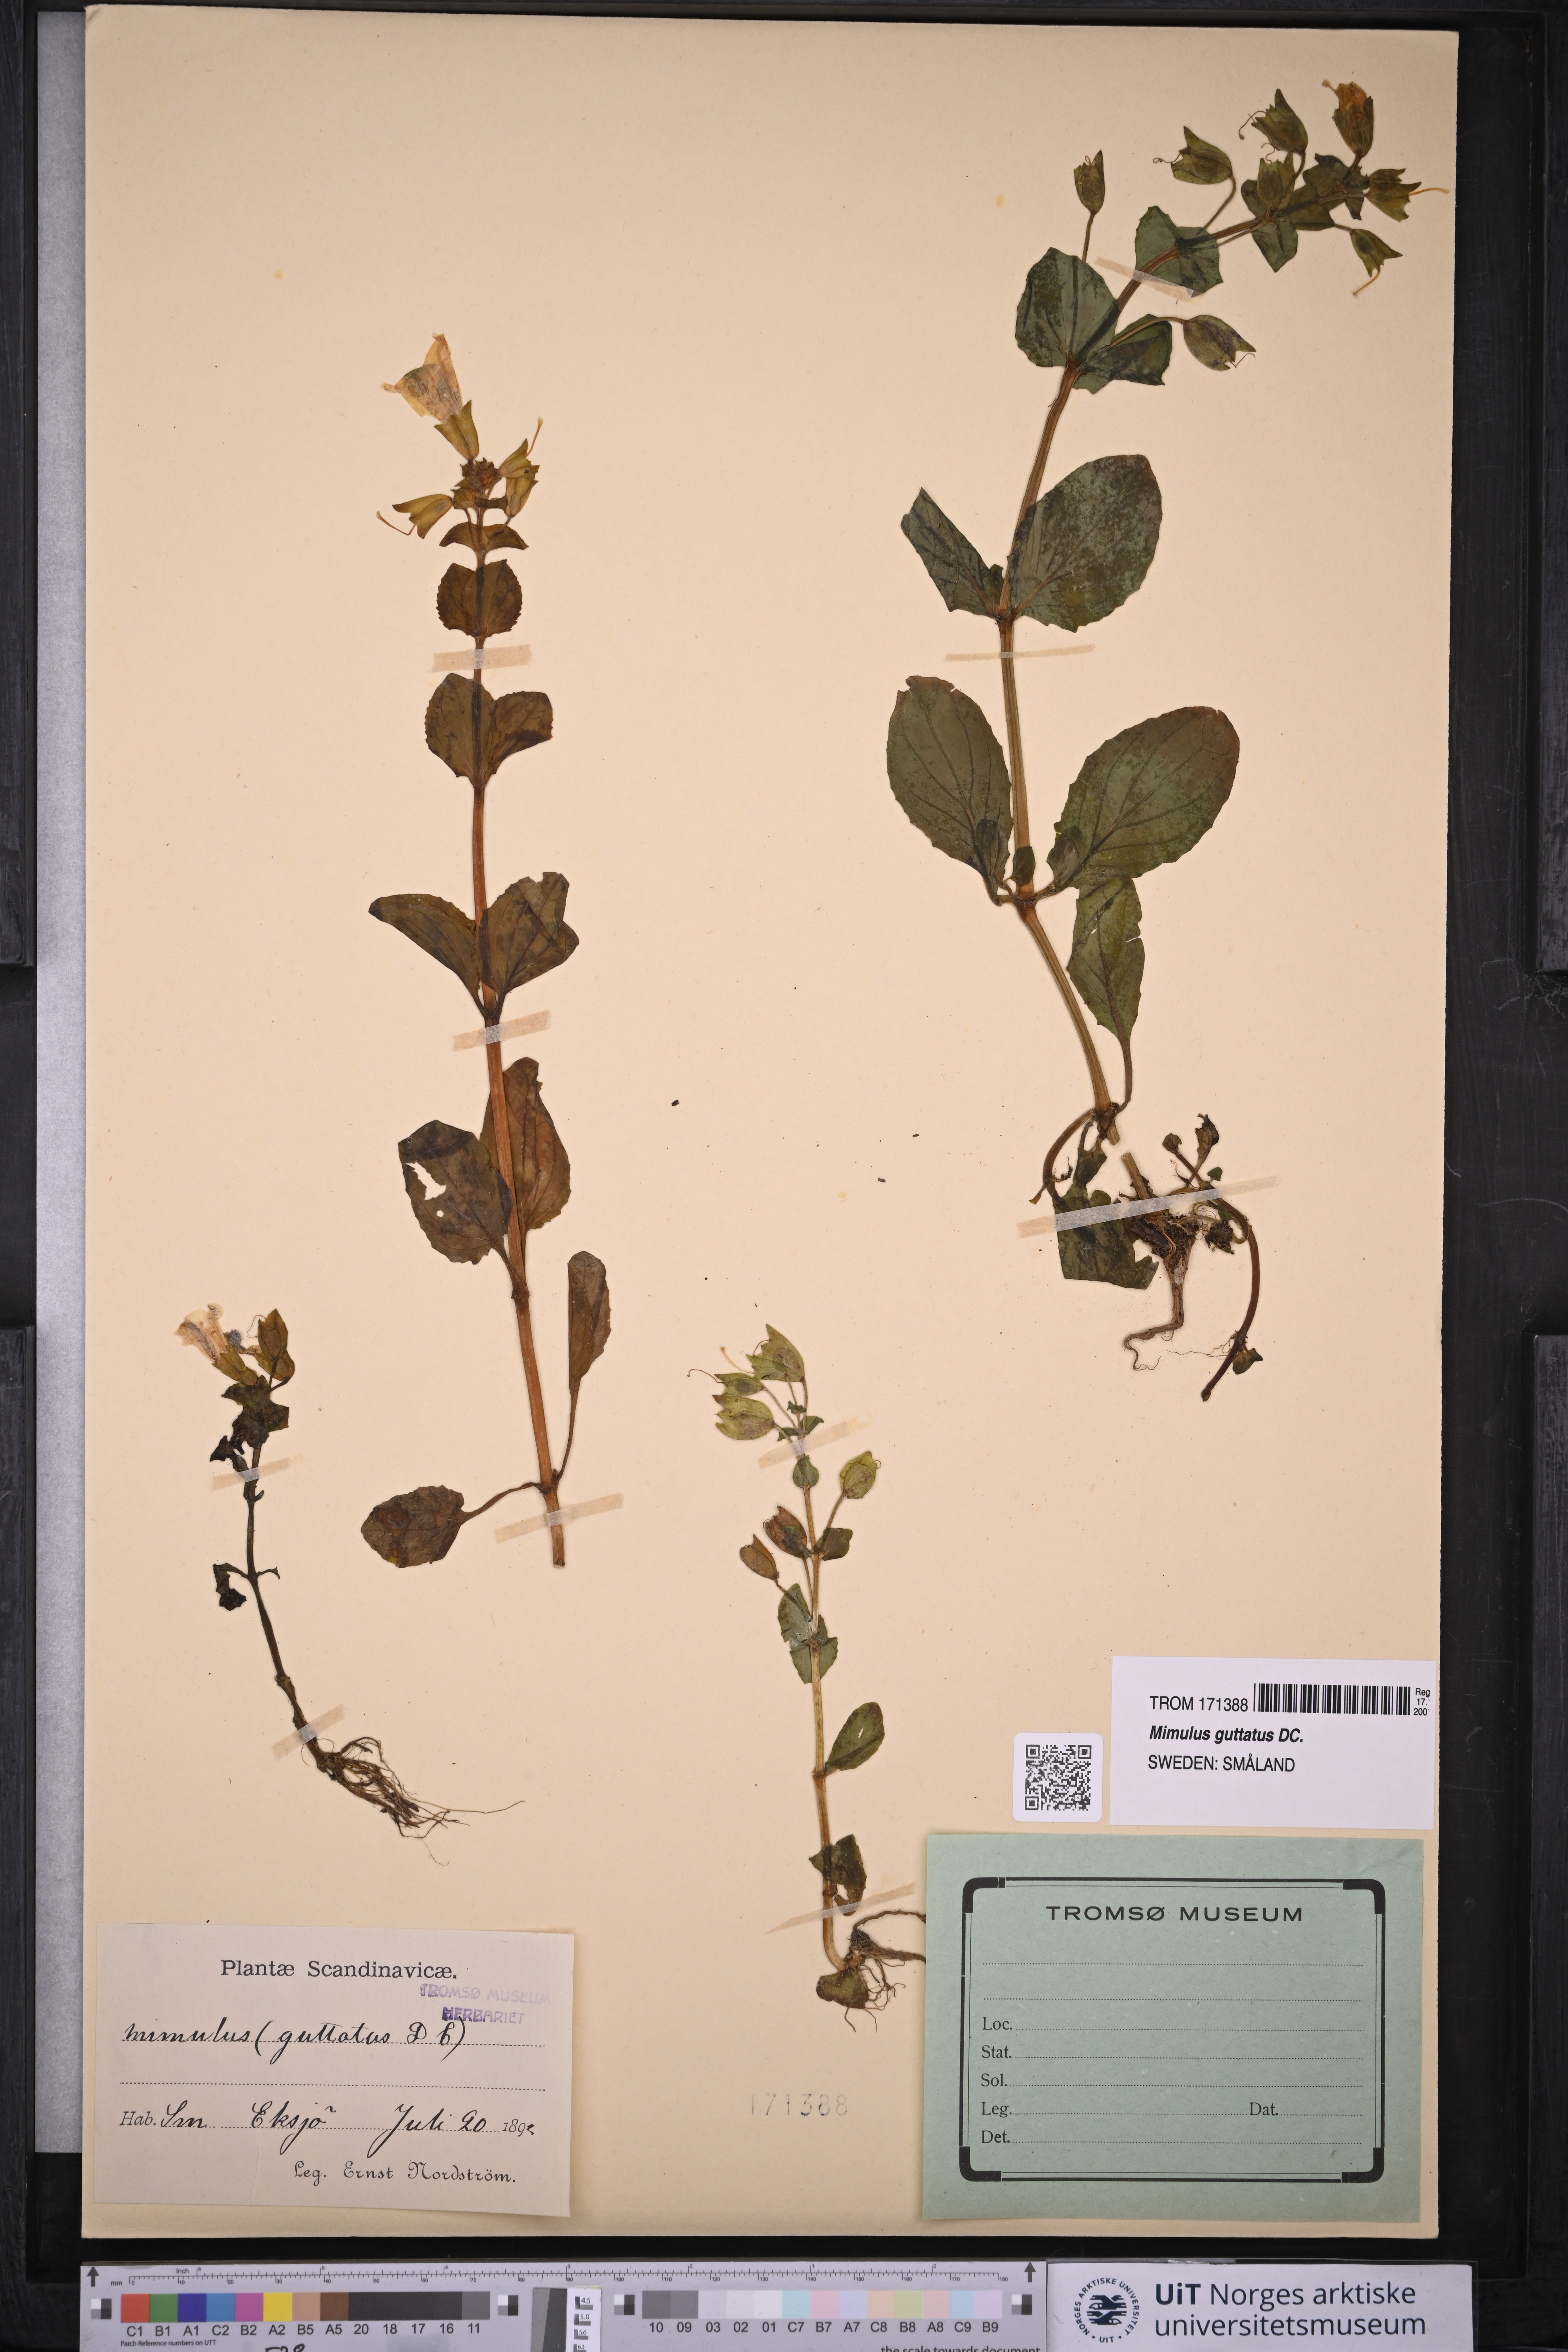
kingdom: Plantae
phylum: Tracheophyta
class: Magnoliopsida
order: Lamiales
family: Phrymaceae
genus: Erythranthe
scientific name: Erythranthe guttata
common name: Monkeyflower
